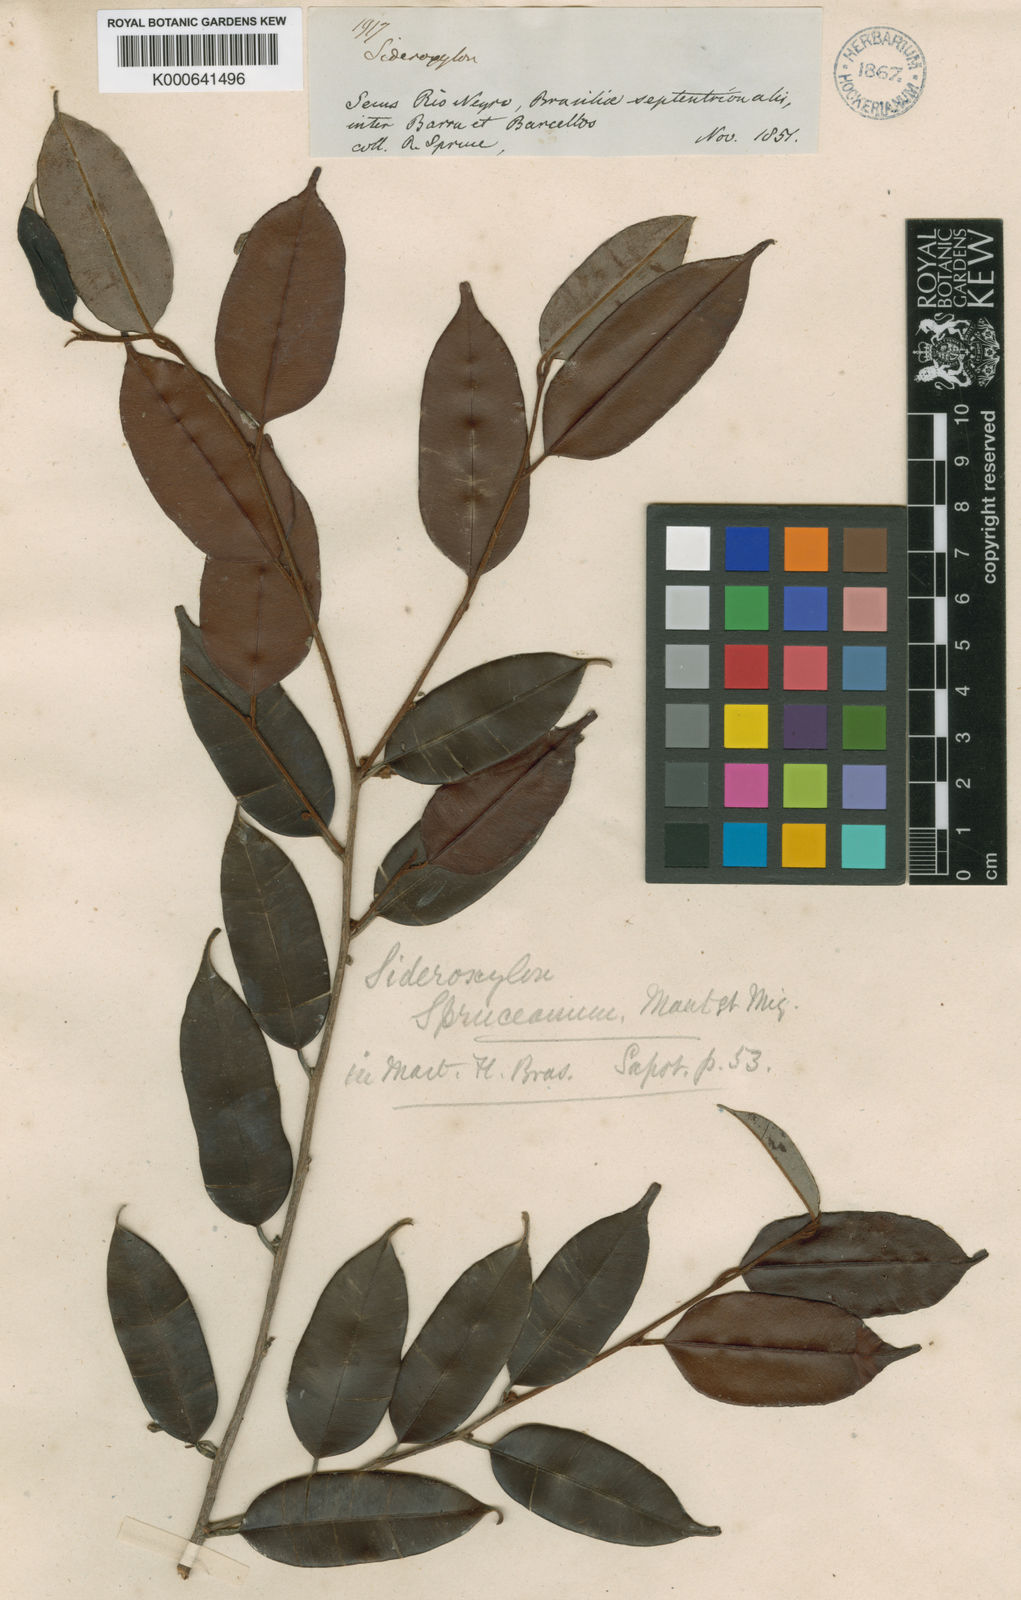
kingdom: Plantae
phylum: Tracheophyta
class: Magnoliopsida
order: Ericales
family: Sapotaceae
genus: Micropholis
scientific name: Micropholis humboldtiana
